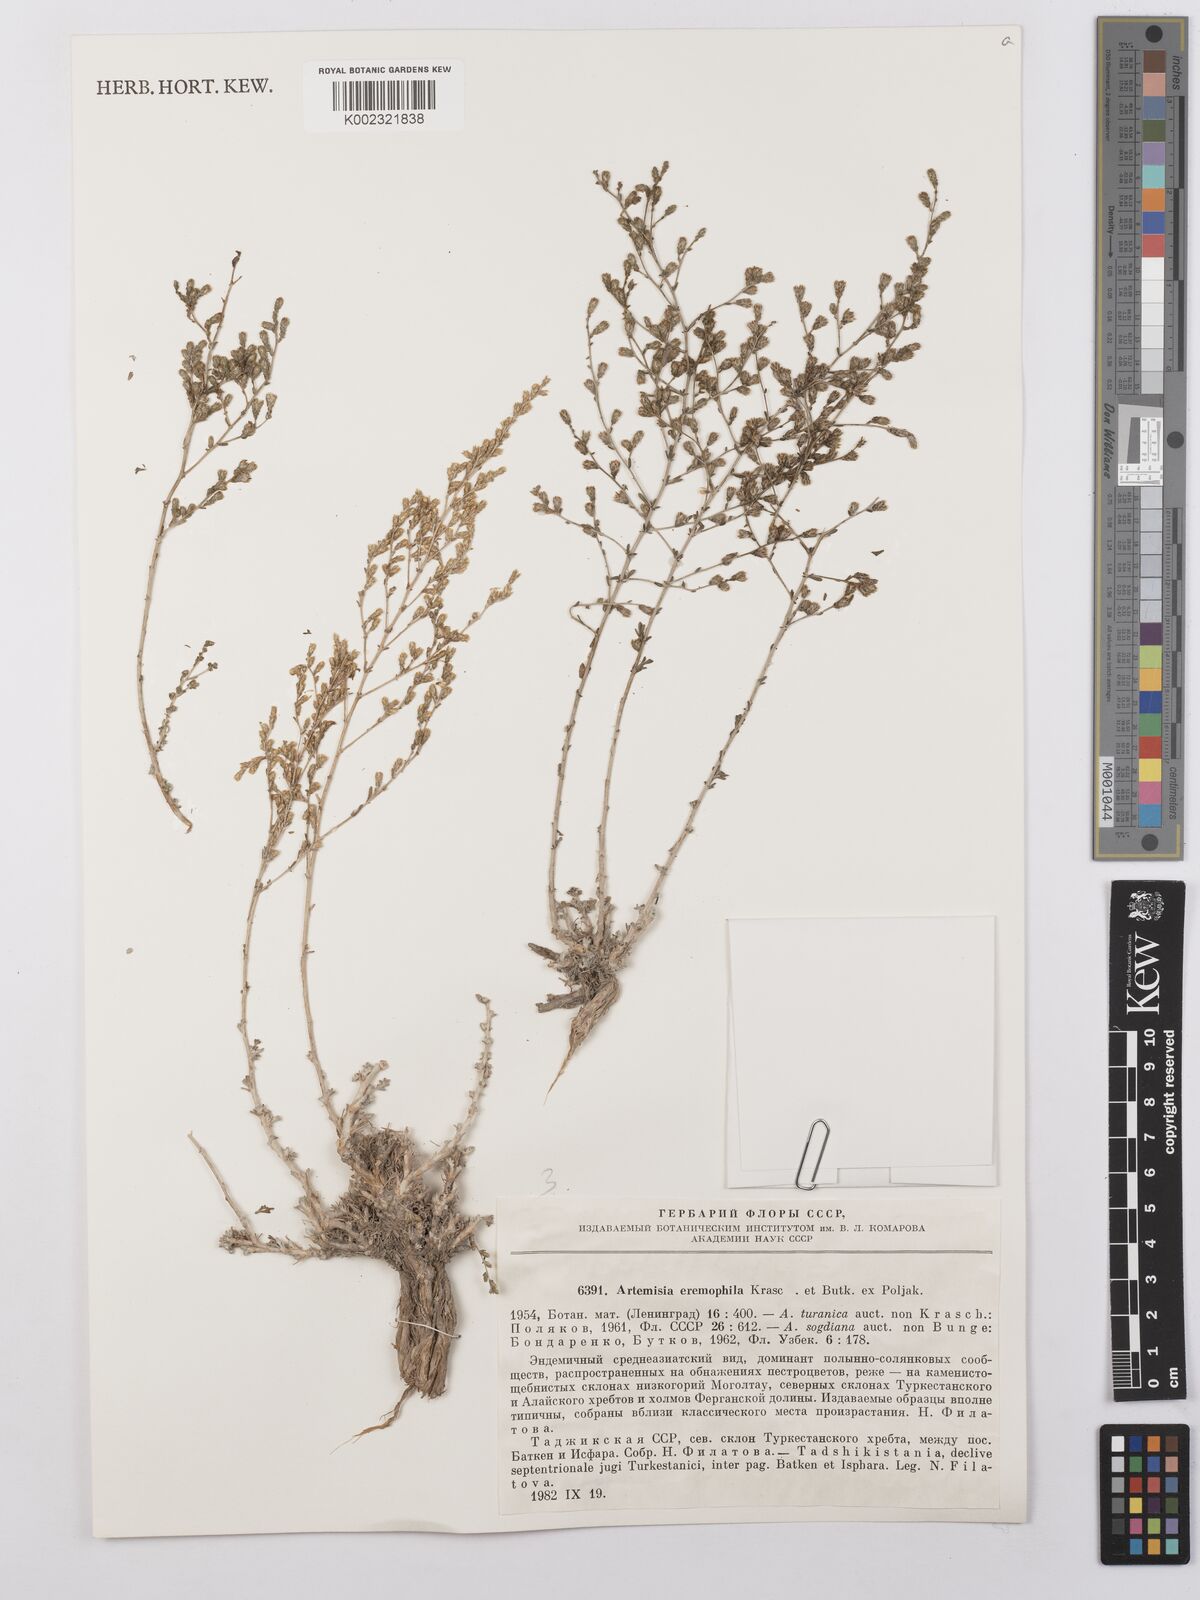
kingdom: Plantae
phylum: Tracheophyta
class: Magnoliopsida
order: Asterales
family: Asteraceae
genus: Artemisia
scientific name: Artemisia eremophila
